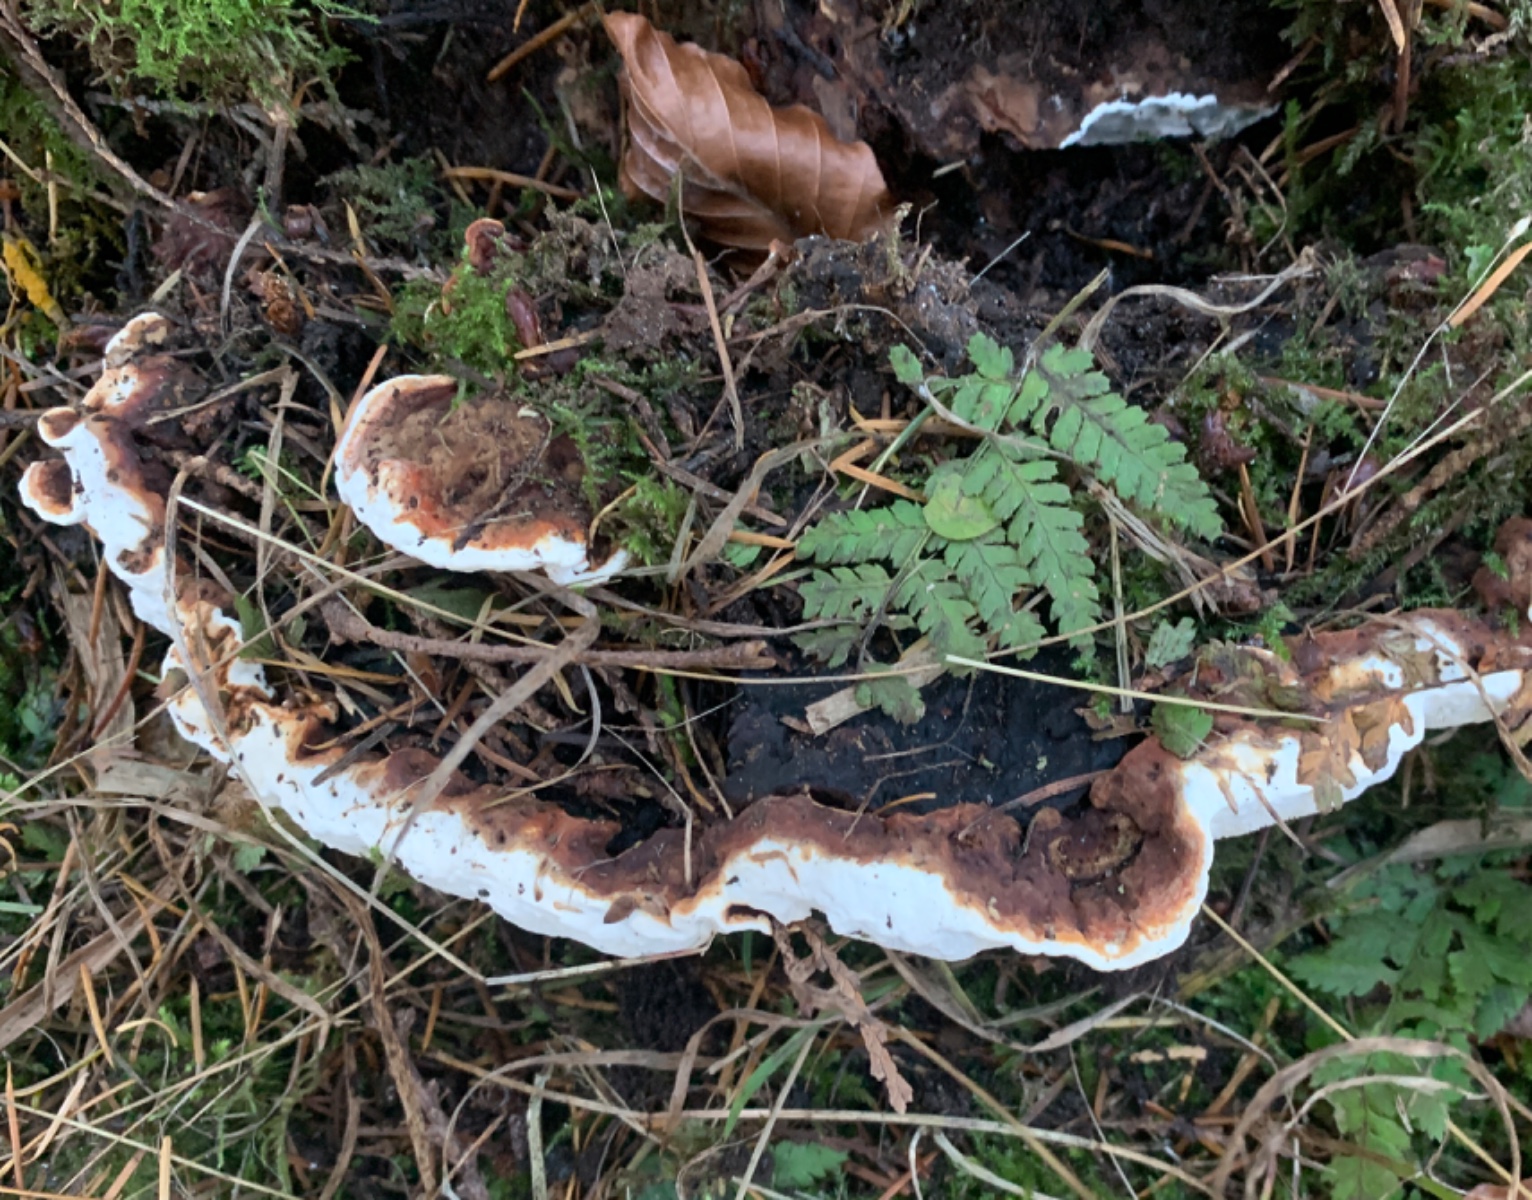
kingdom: Fungi
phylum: Basidiomycota
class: Agaricomycetes
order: Russulales
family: Bondarzewiaceae
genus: Heterobasidion
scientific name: Heterobasidion annosum
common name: almindelig rodfordærver
